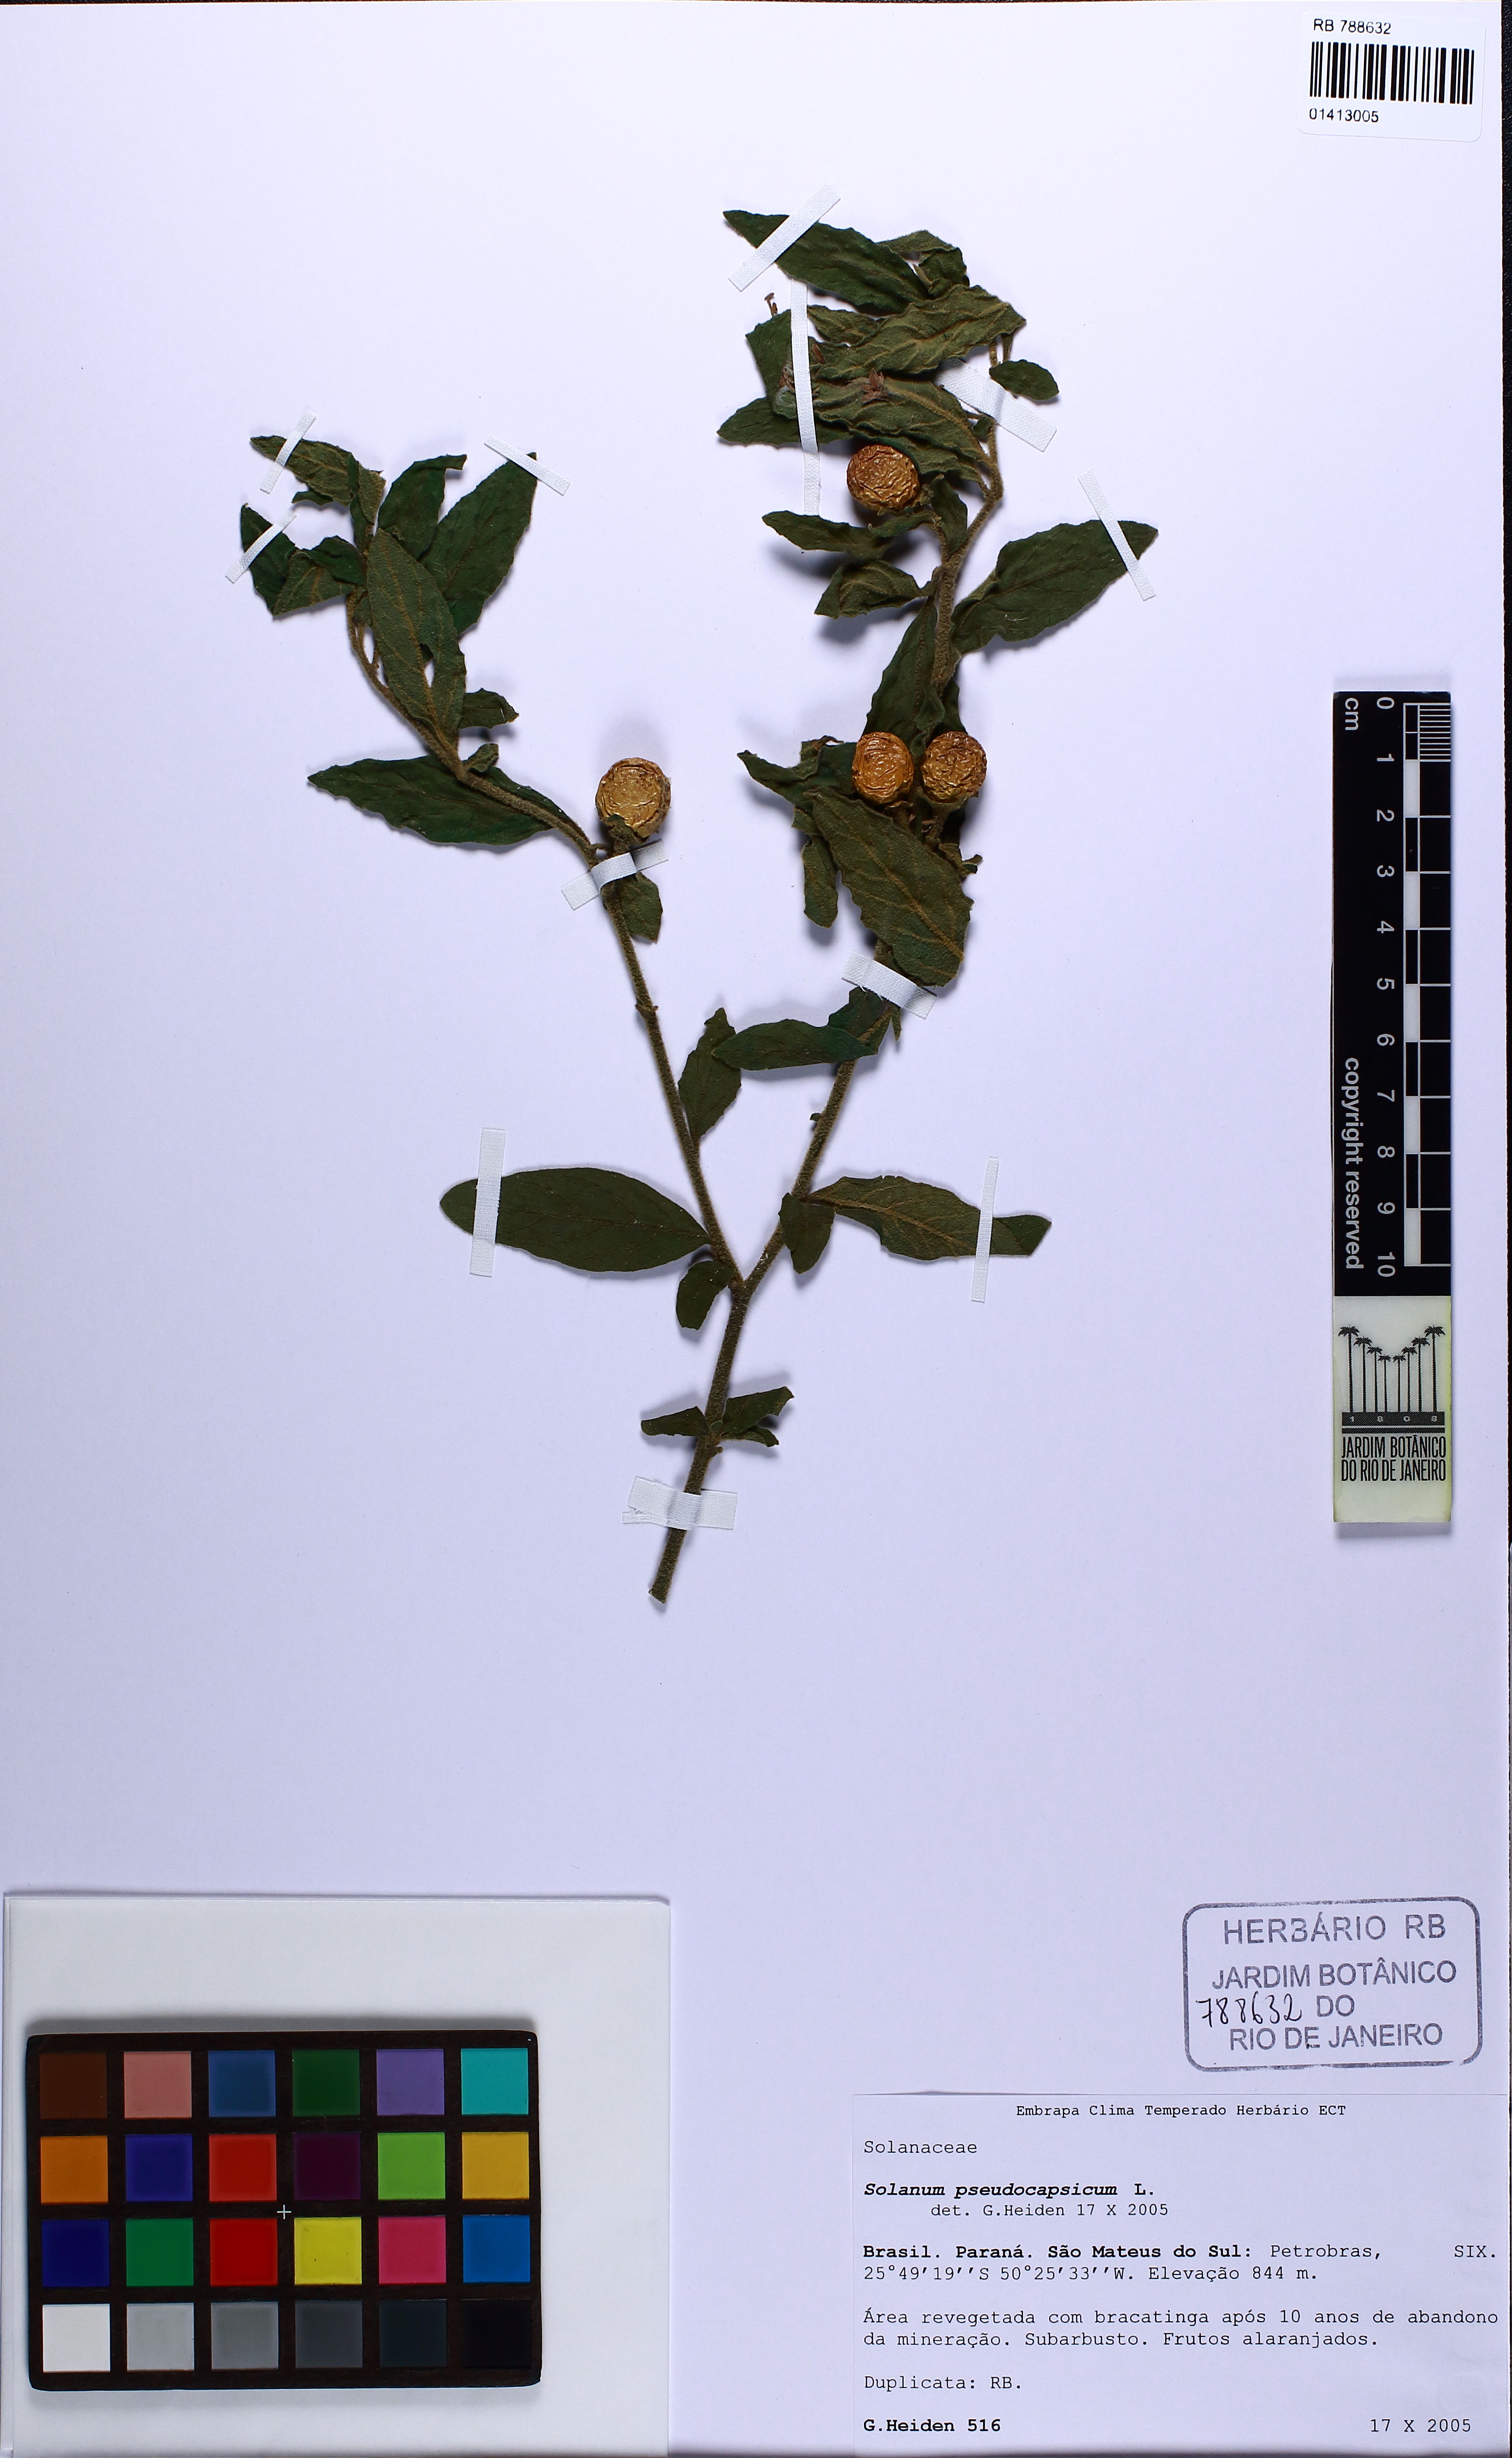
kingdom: Plantae
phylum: Tracheophyta
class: Magnoliopsida
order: Solanales
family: Solanaceae
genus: Solanum
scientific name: Solanum pseudocapsicum
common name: Jerusalem cherry
